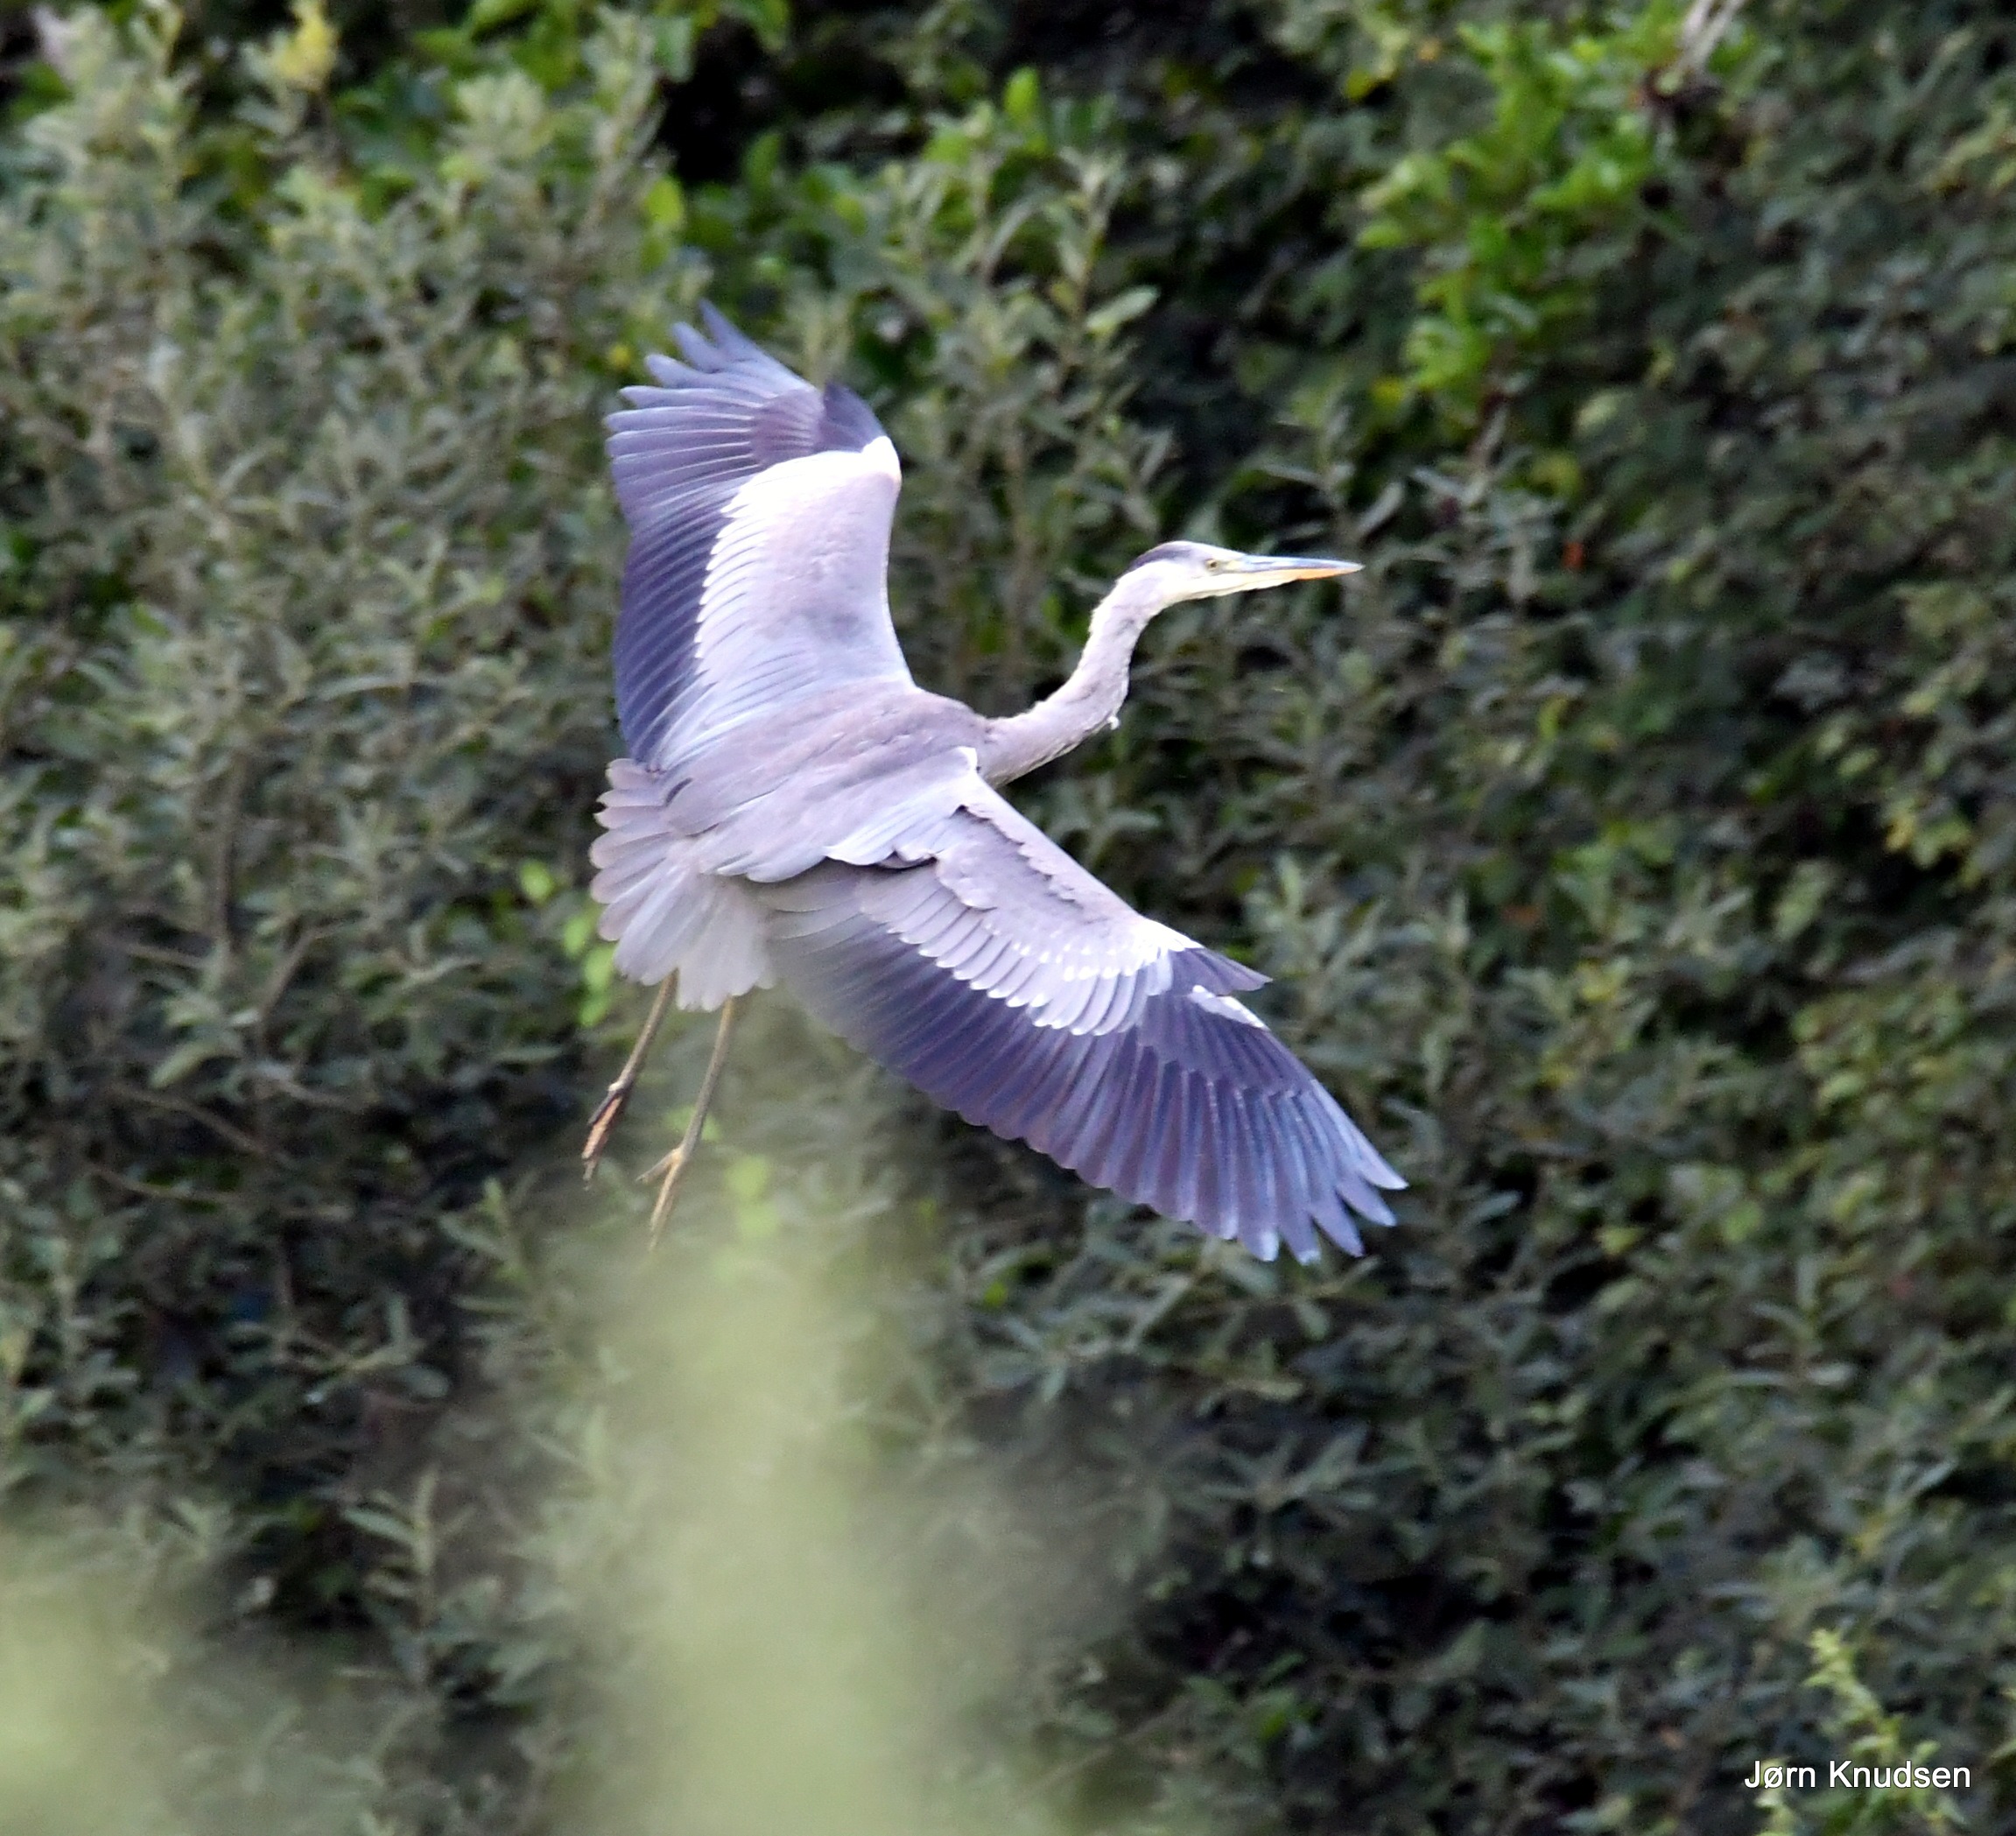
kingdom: Animalia
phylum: Chordata
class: Aves
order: Pelecaniformes
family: Ardeidae
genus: Ardea
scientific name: Ardea cinerea
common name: Fiskehejre
